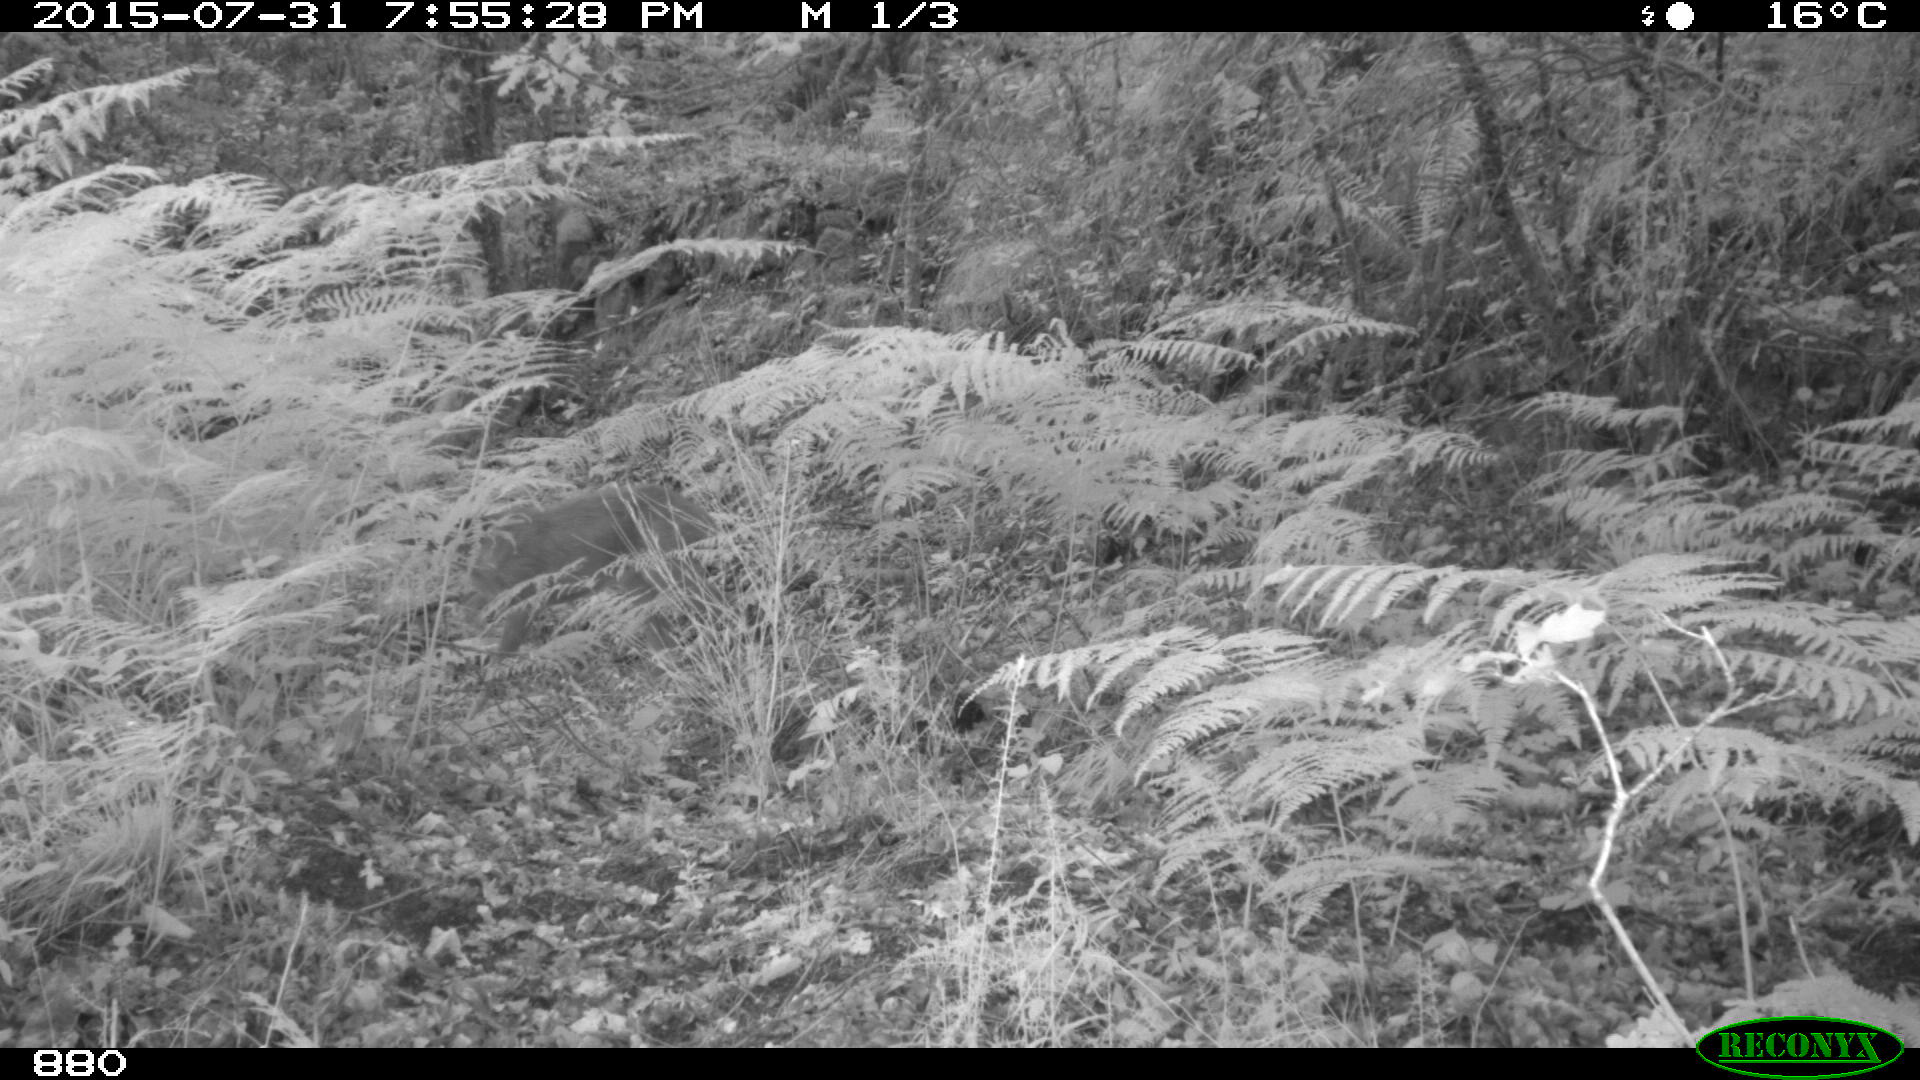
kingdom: Animalia
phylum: Chordata
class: Mammalia
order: Artiodactyla
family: Cervidae
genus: Capreolus
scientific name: Capreolus capreolus
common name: Western roe deer
